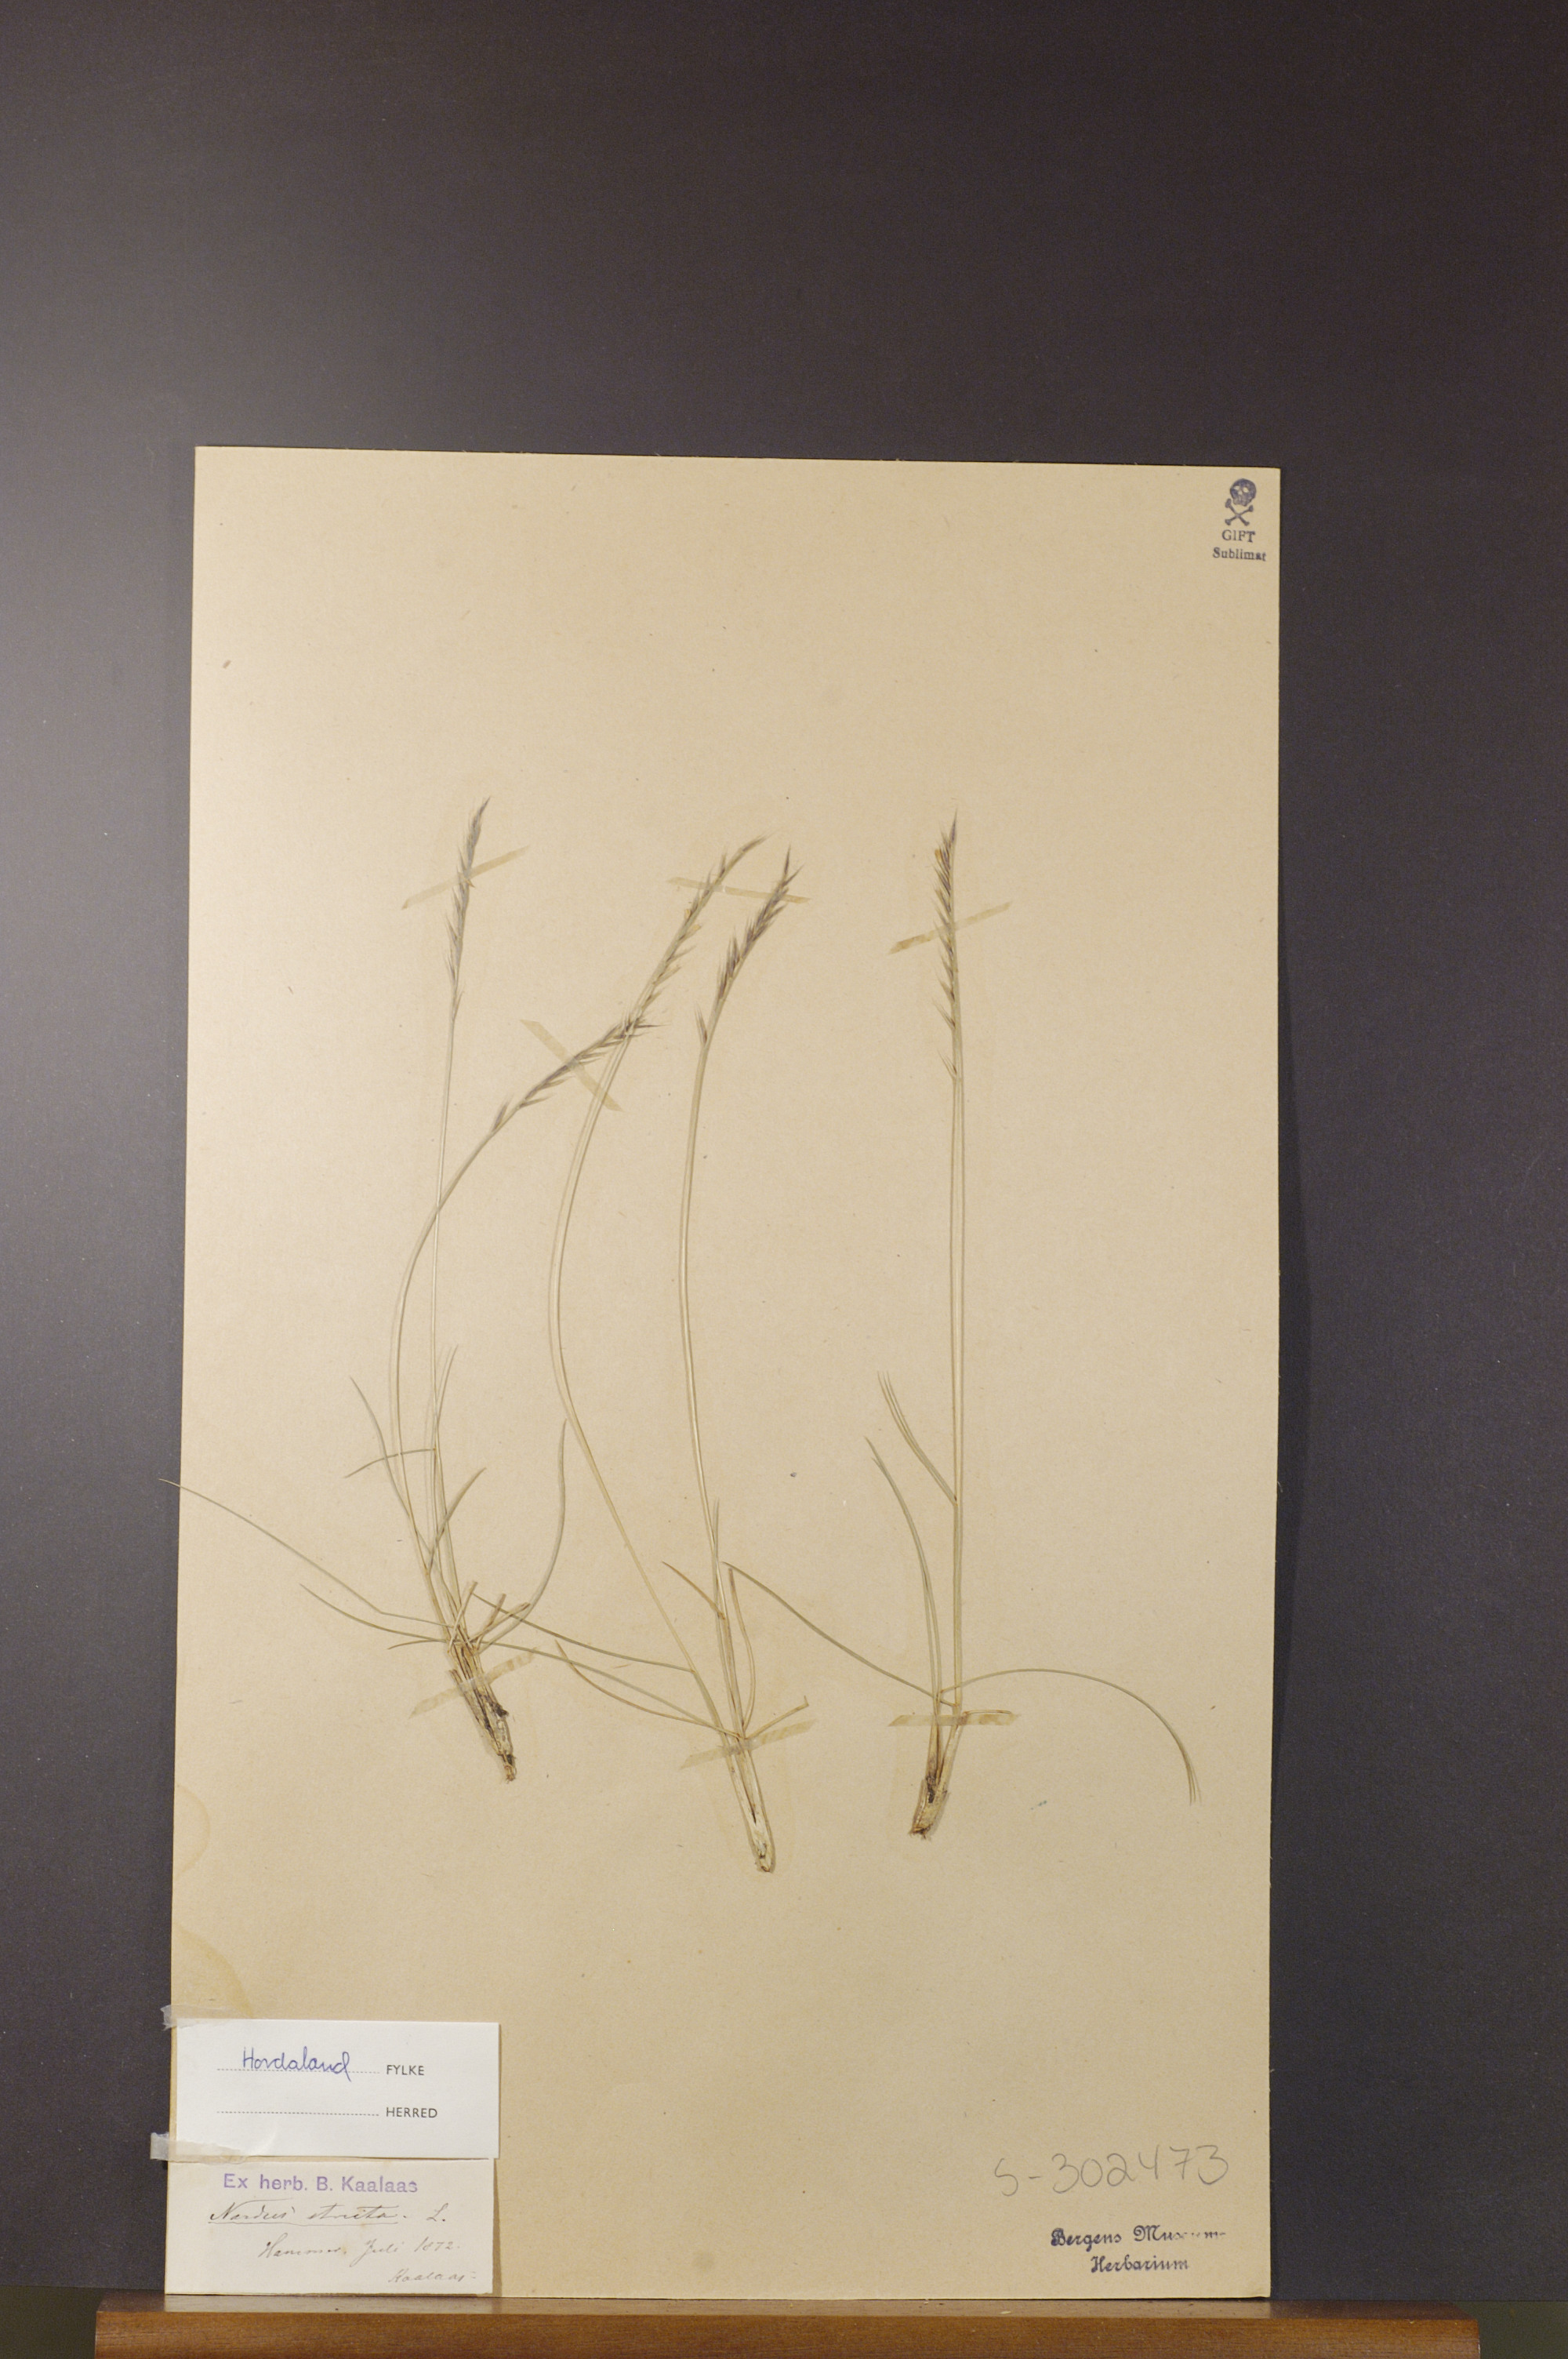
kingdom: Plantae
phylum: Tracheophyta
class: Liliopsida
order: Poales
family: Poaceae
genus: Nardus
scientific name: Nardus stricta
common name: Mat-grass
